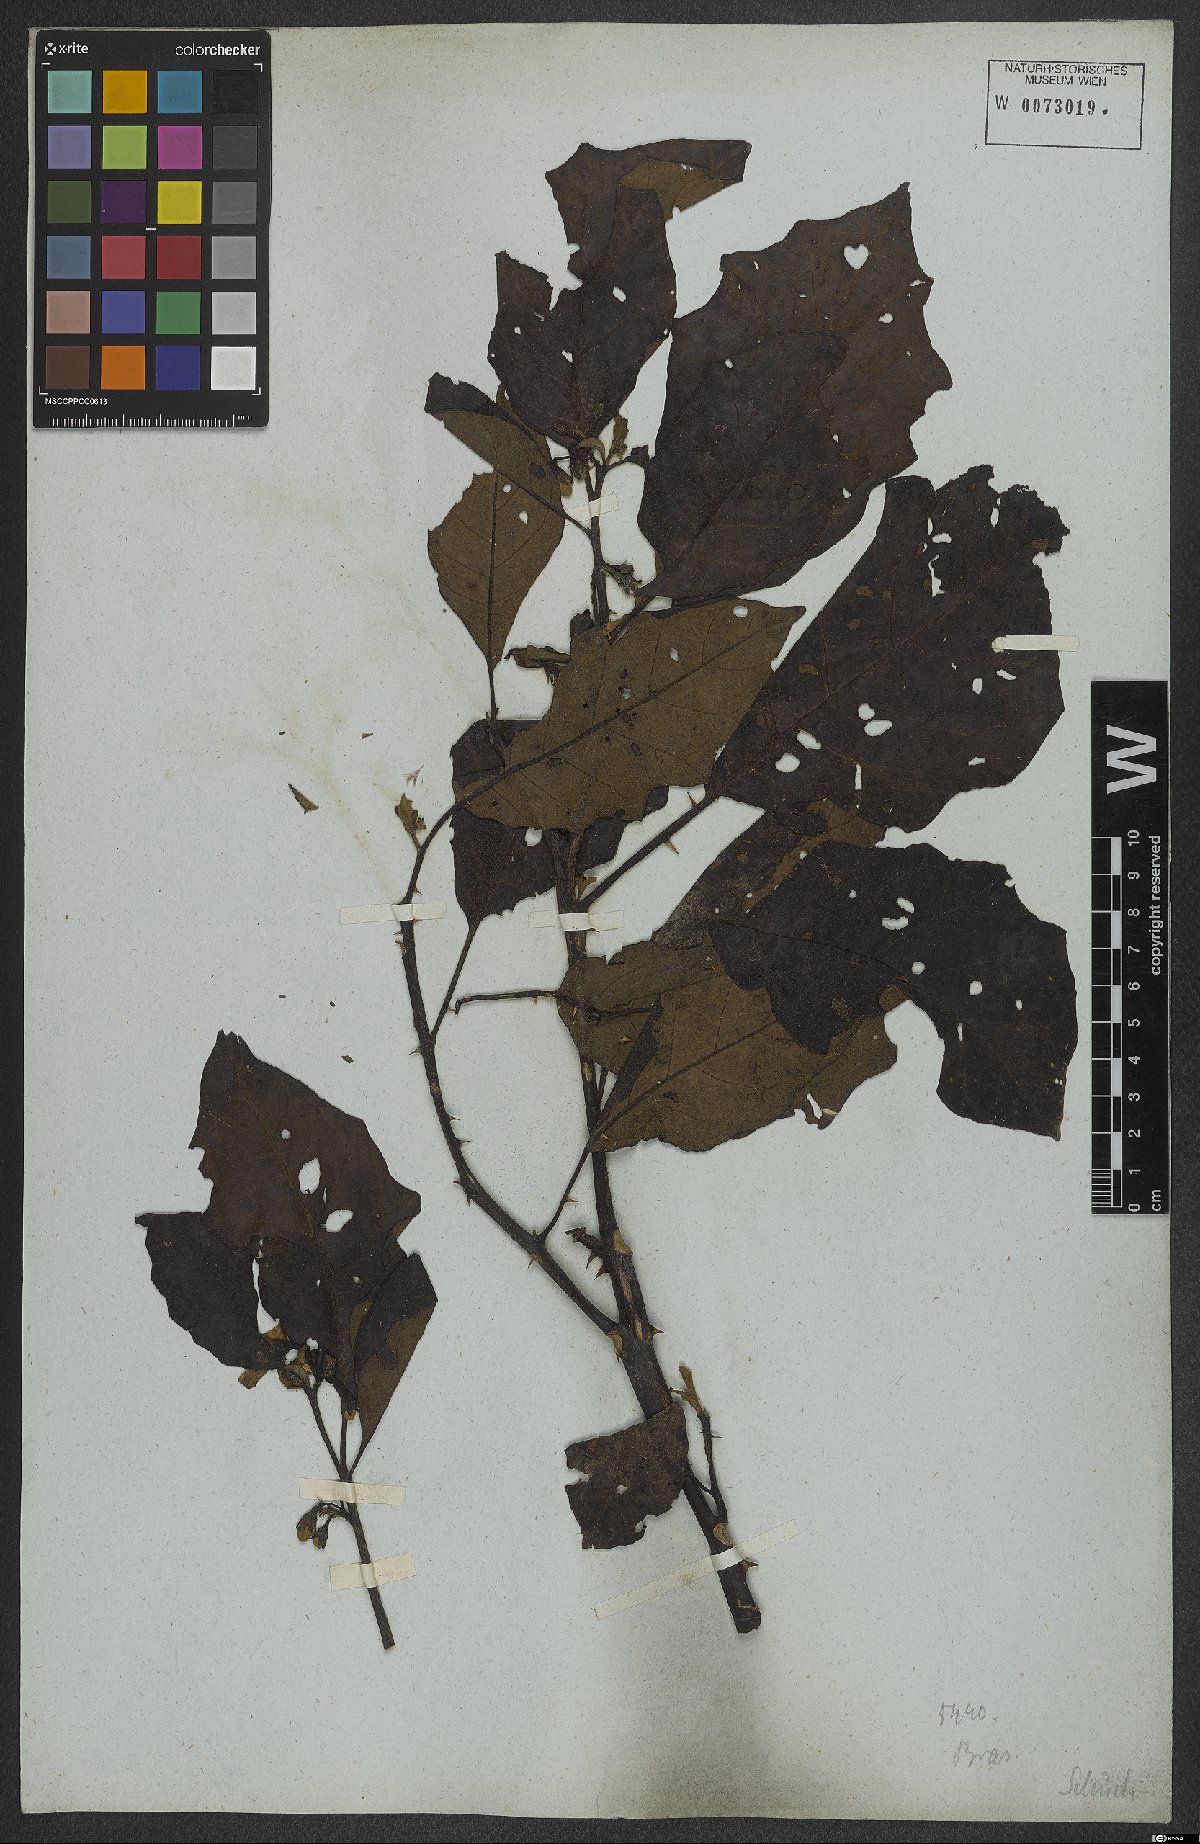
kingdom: Plantae
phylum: Tracheophyta
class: Magnoliopsida
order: Solanales
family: Solanaceae
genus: Solanum
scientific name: Solanum asterophorum
